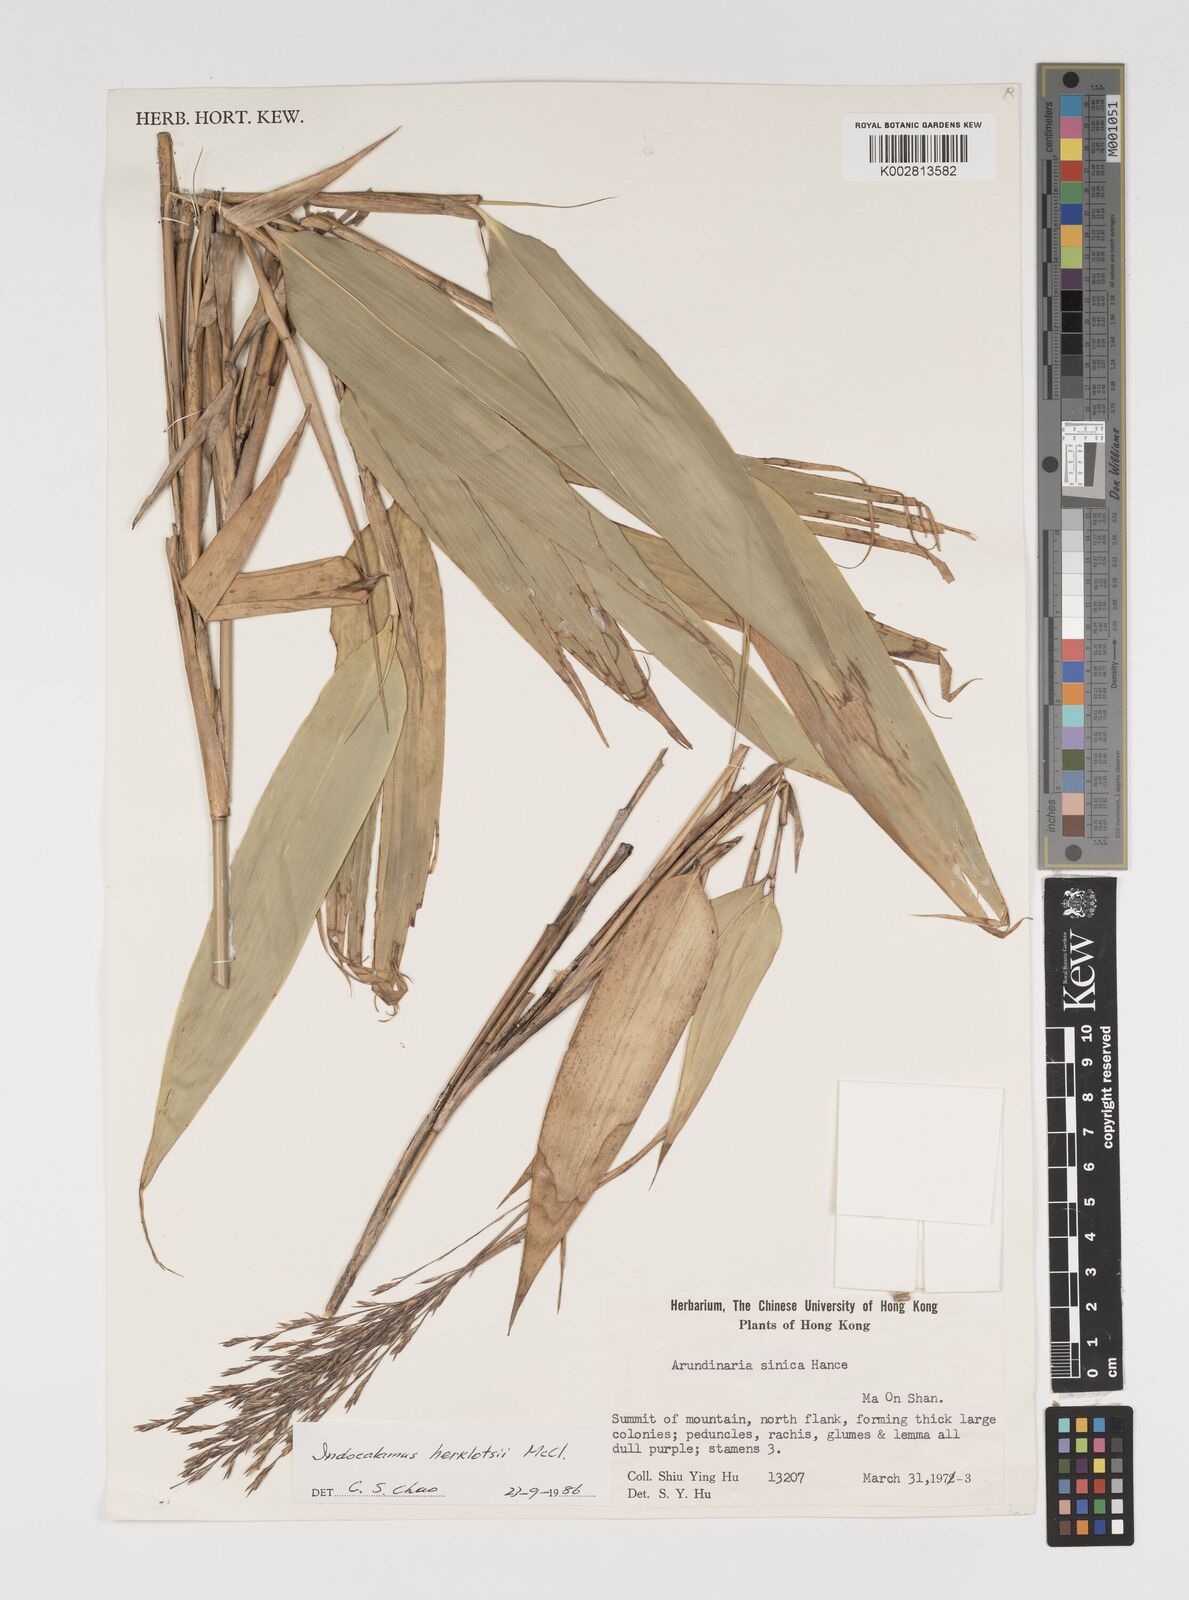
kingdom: Plantae
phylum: Tracheophyta
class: Liliopsida
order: Poales
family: Poaceae
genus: Indocalamus
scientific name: Indocalamus herklotsii
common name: Herklot's cane
